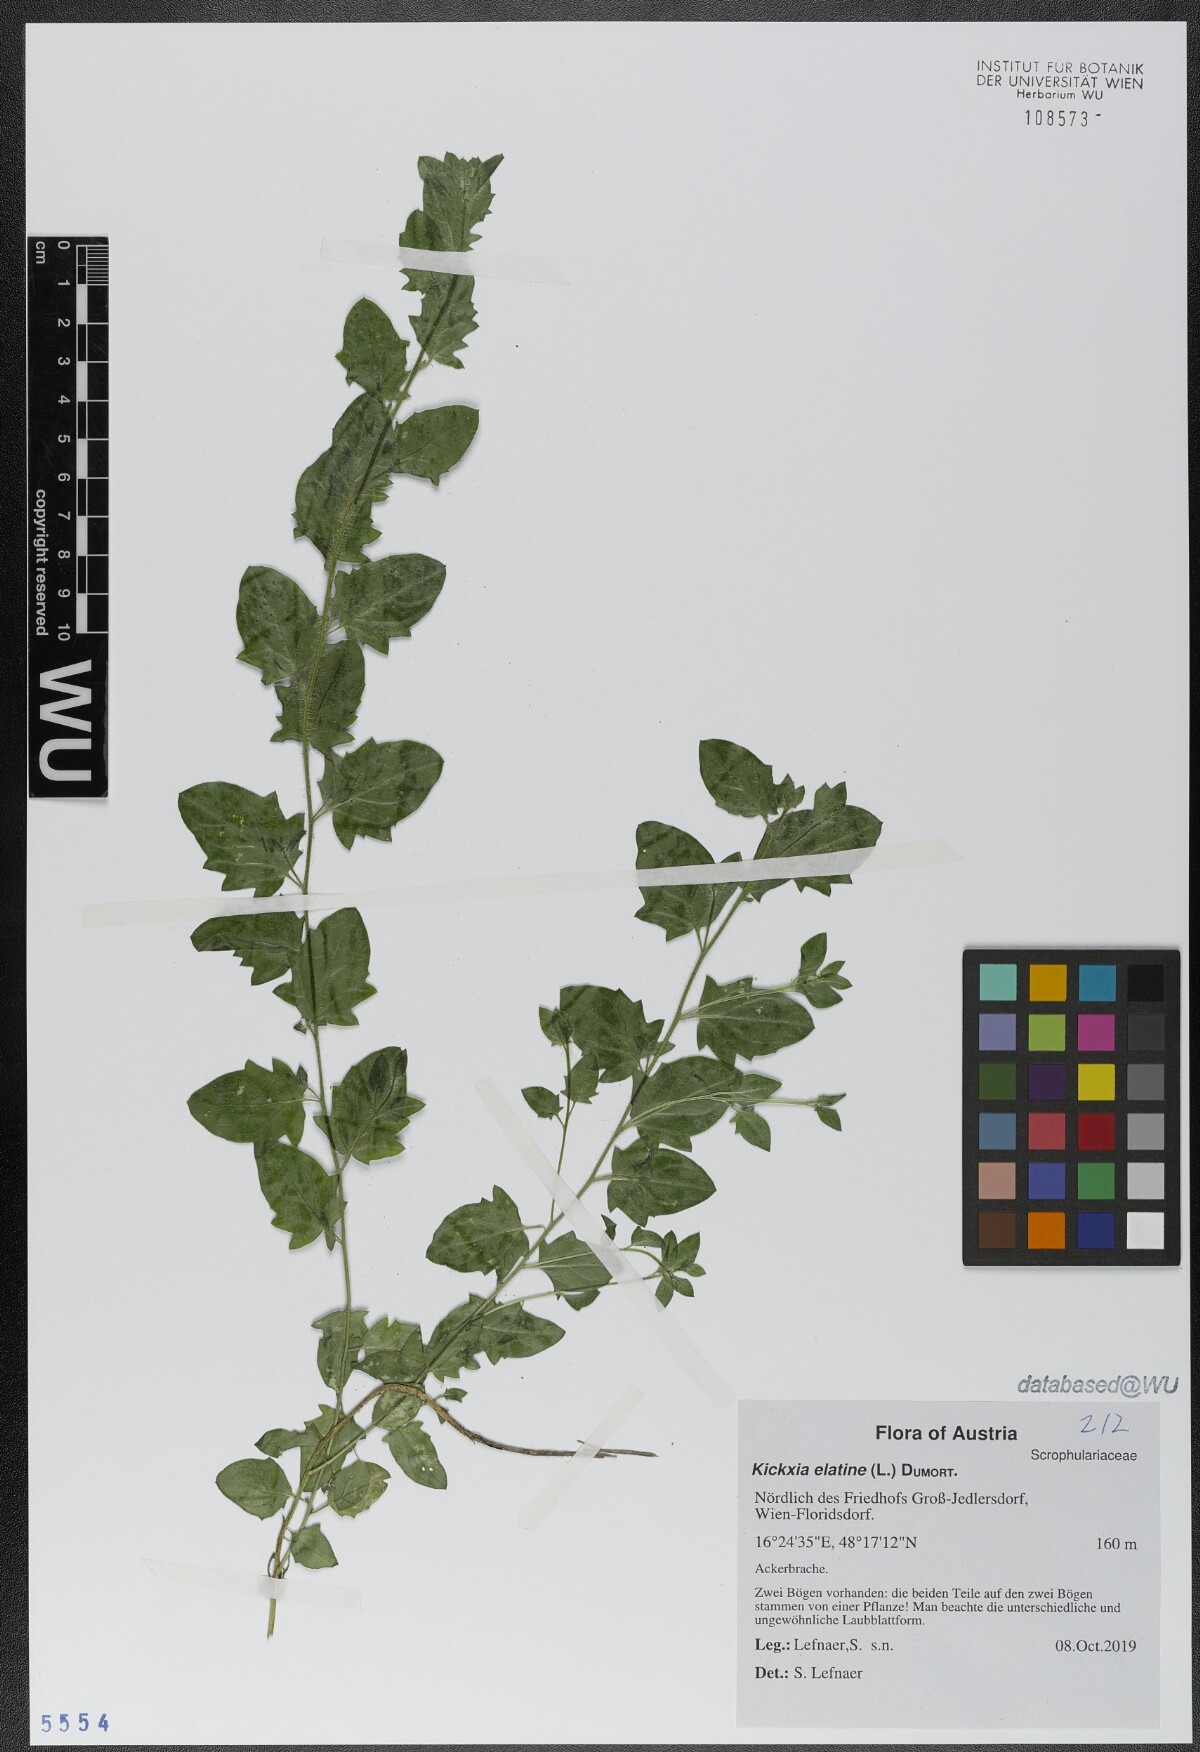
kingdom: Plantae
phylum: Tracheophyta
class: Magnoliopsida
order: Lamiales
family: Plantaginaceae
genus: Kickxia
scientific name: Kickxia elatine
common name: Sharp-leaved fluellen
